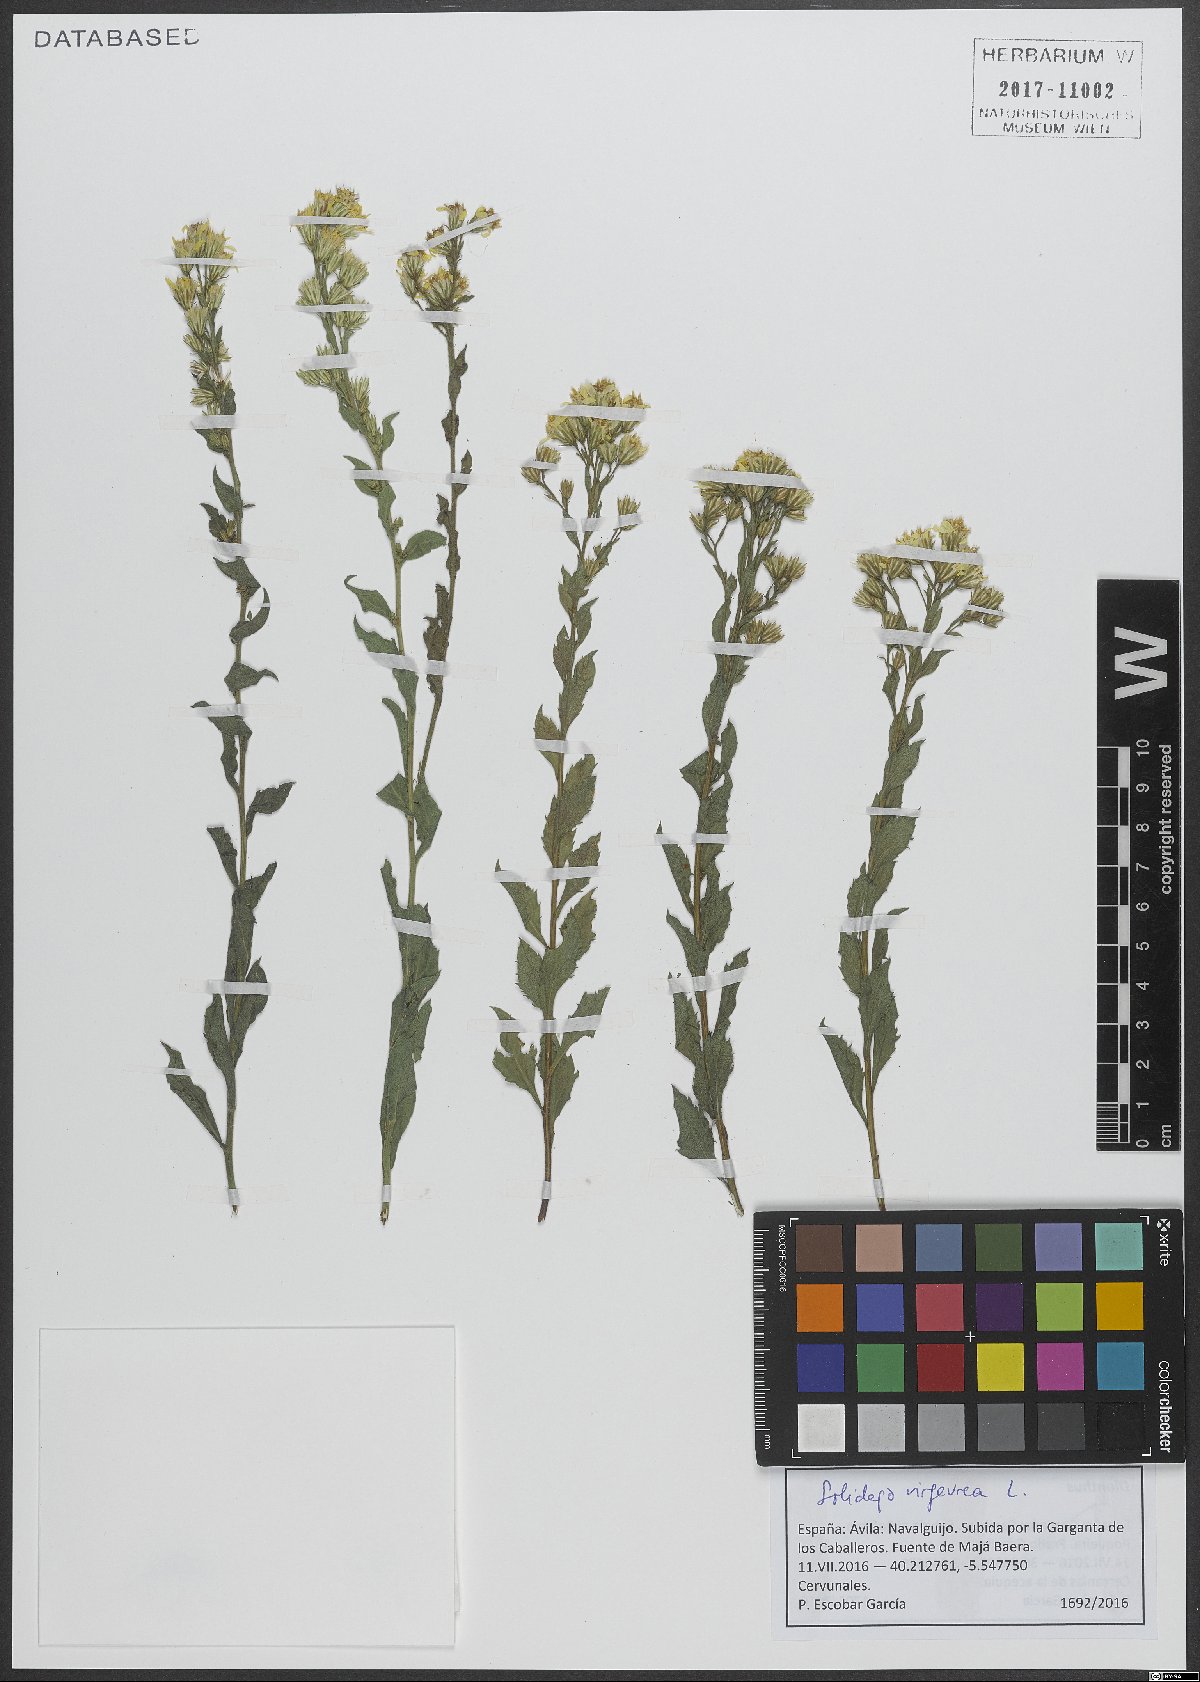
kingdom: Plantae
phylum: Tracheophyta
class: Magnoliopsida
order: Asterales
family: Asteraceae
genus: Solidago
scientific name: Solidago virgaurea
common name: Goldenrod
